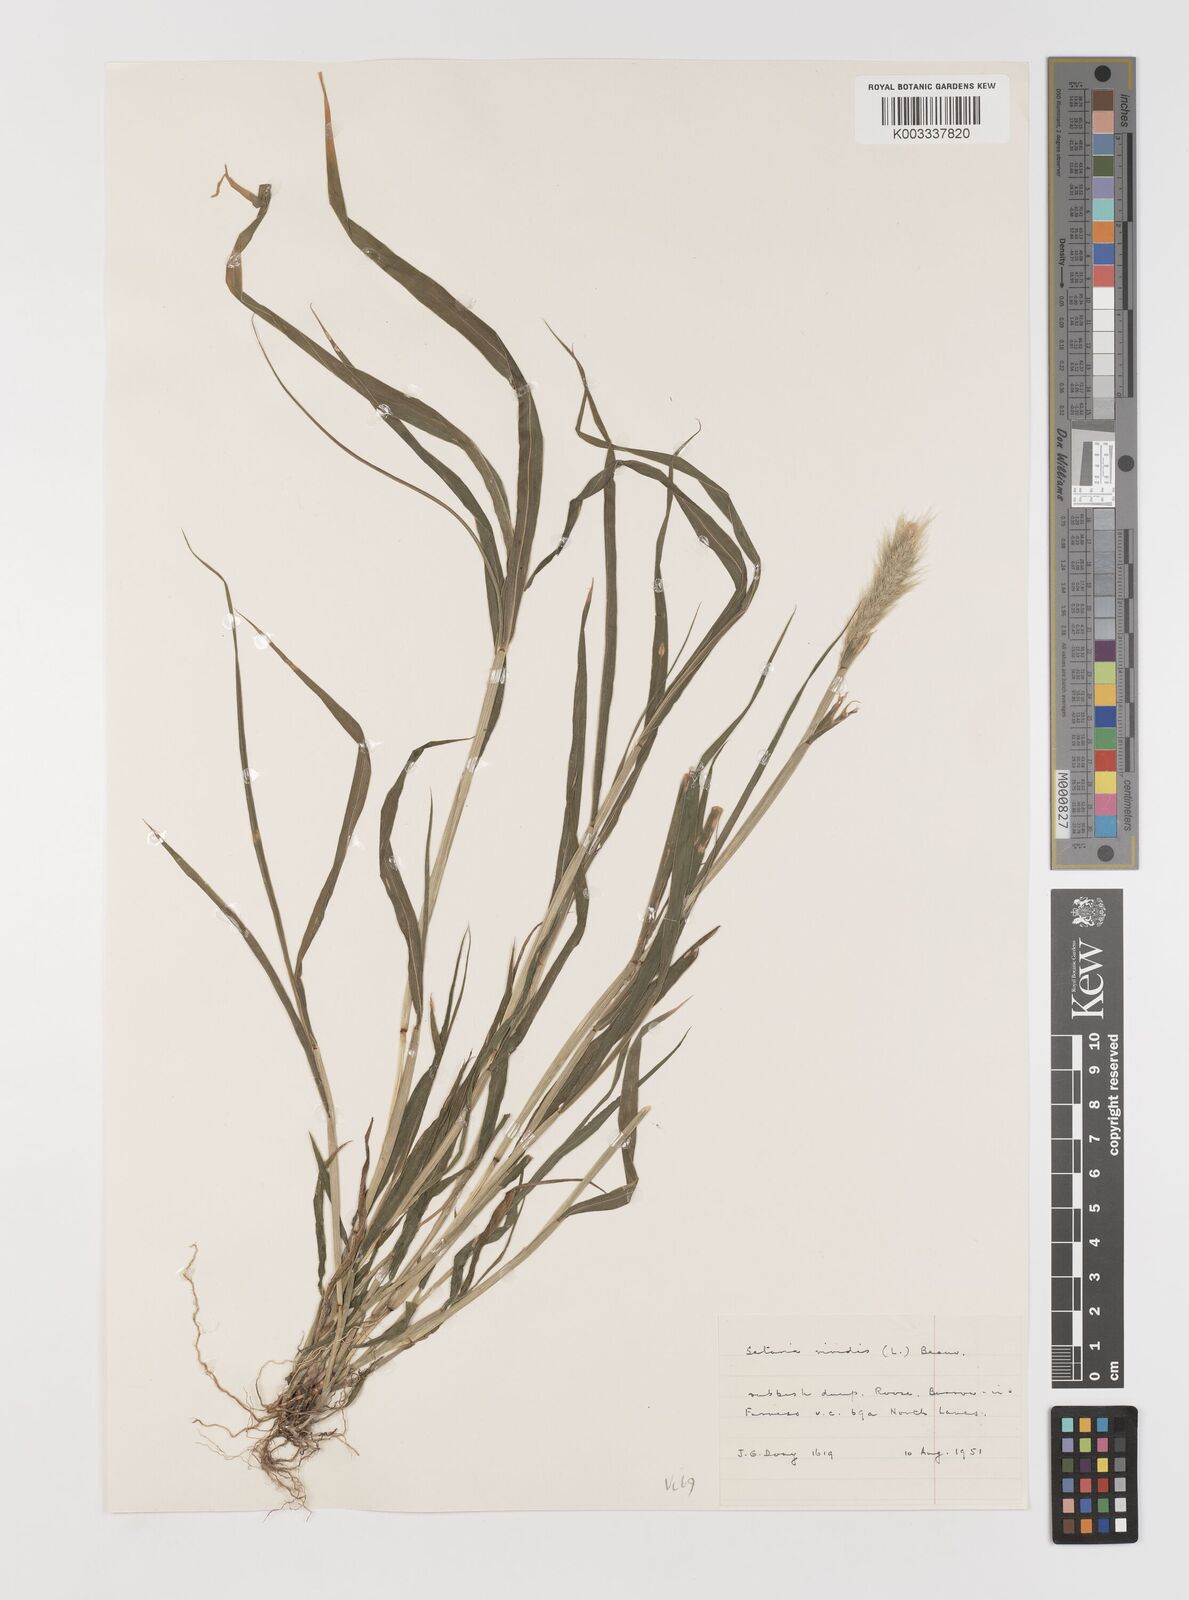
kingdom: Plantae
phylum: Tracheophyta
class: Liliopsida
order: Poales
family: Poaceae
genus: Setaria
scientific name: Setaria viridis
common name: Green bristlegrass
